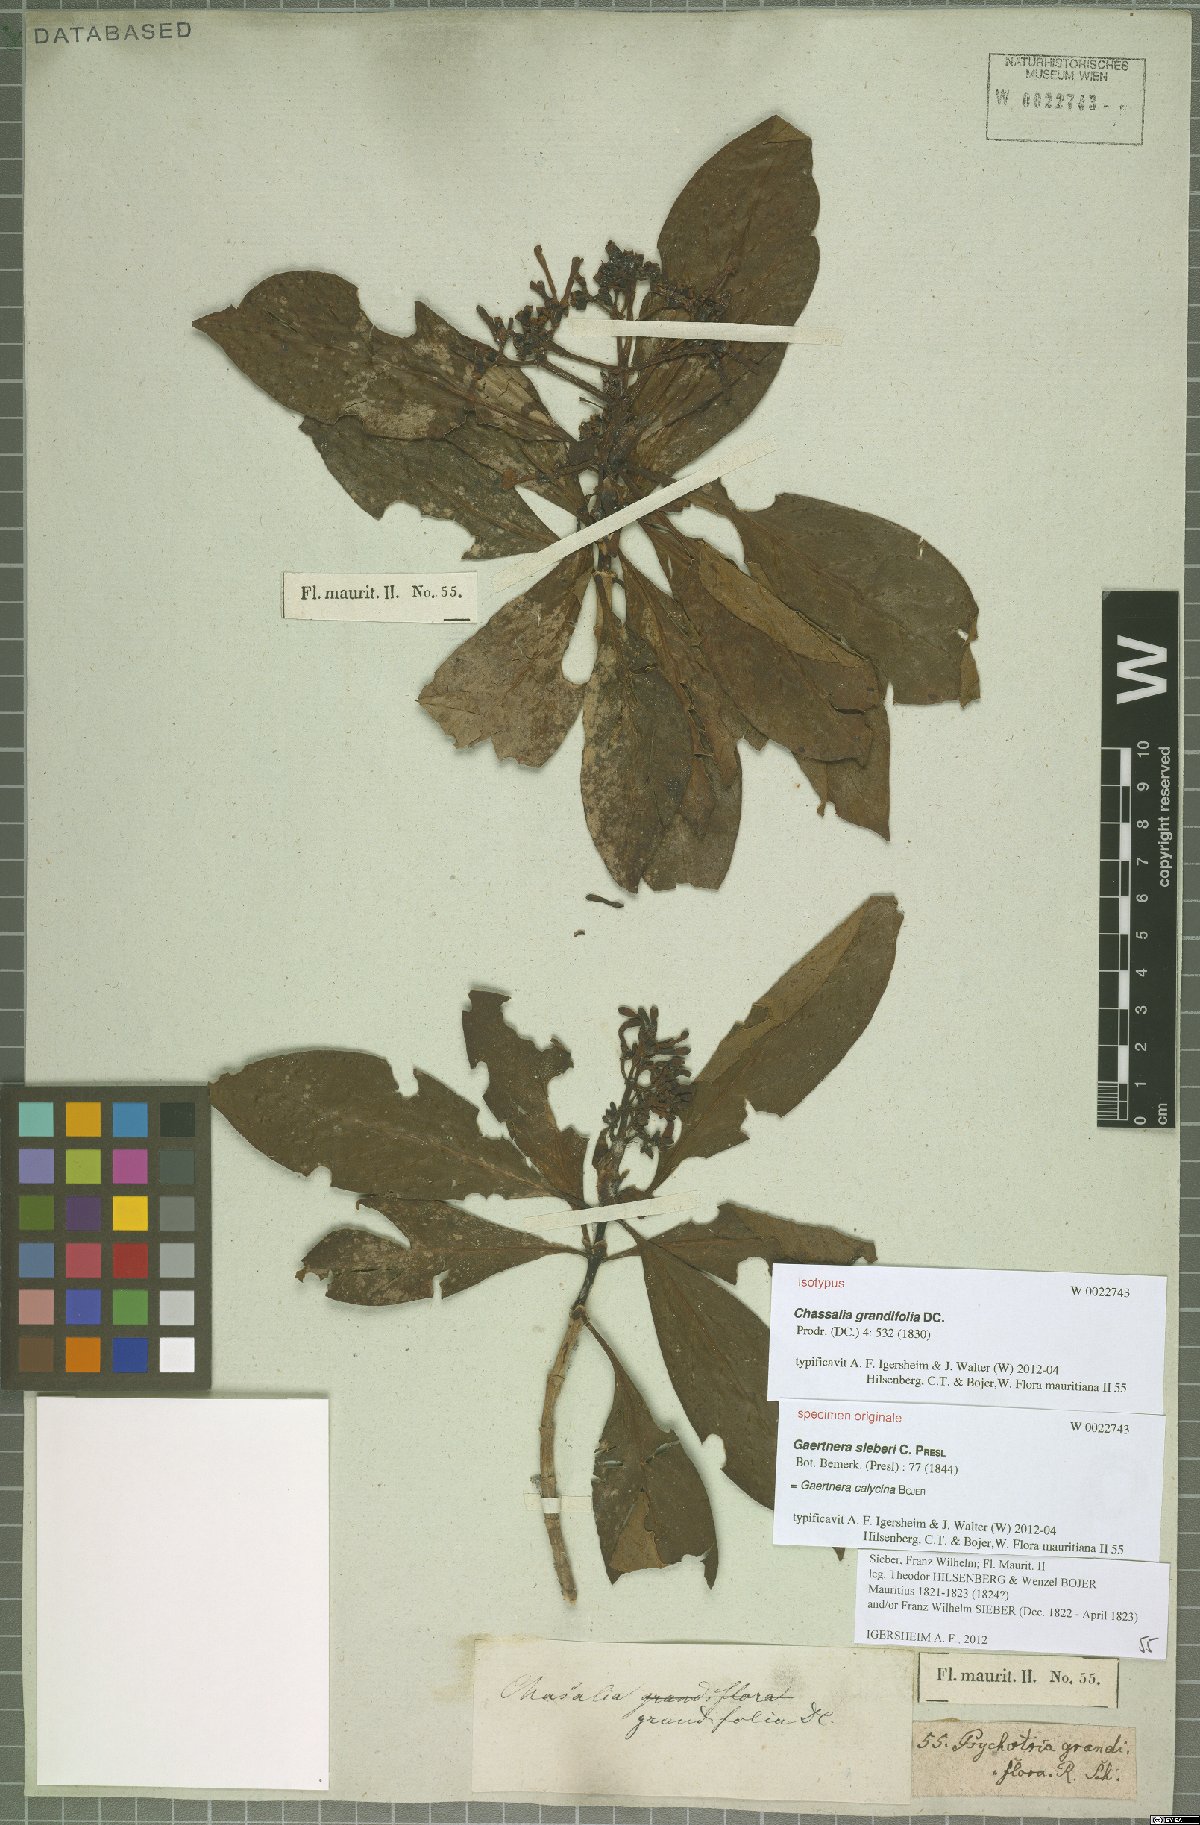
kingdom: Plantae
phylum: Tracheophyta
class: Magnoliopsida
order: Gentianales
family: Rubiaceae
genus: Chassalia
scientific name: Chassalia grandifolia
